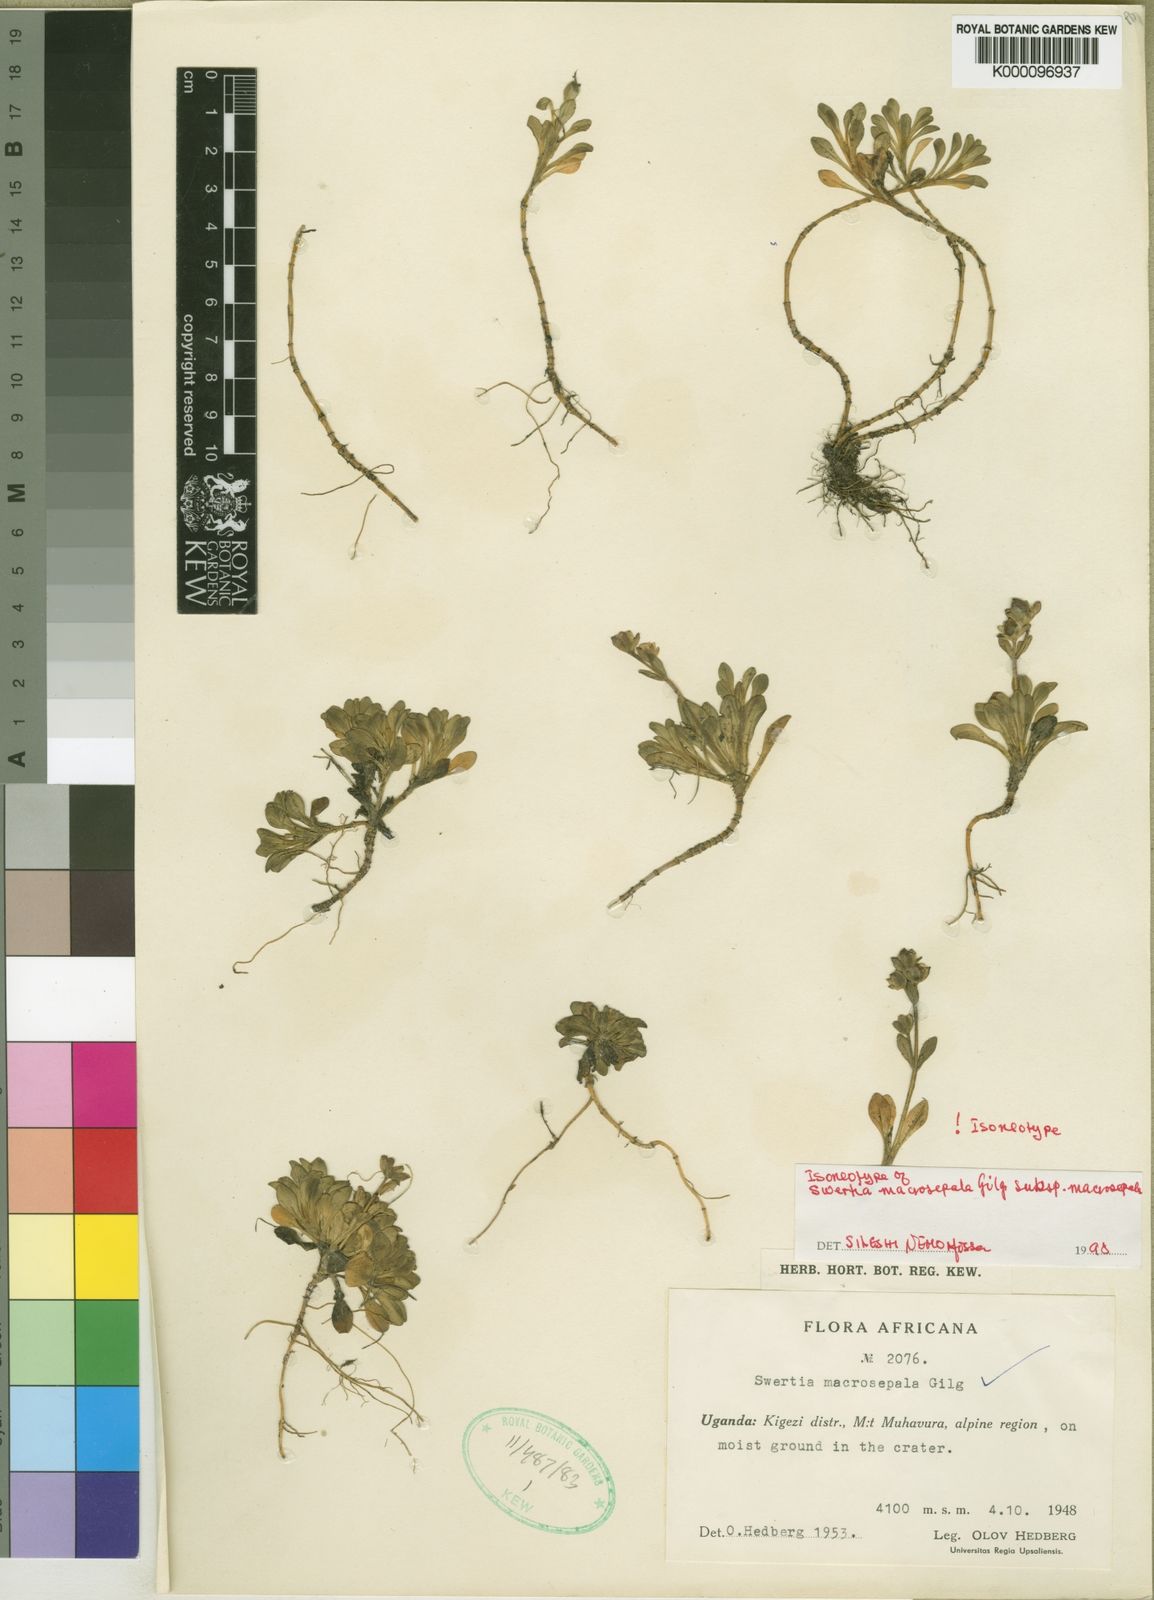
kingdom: Plantae
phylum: Tracheophyta
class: Magnoliopsida
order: Gentianales
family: Gentianaceae
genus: Swertia
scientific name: Swertia macrosepala
